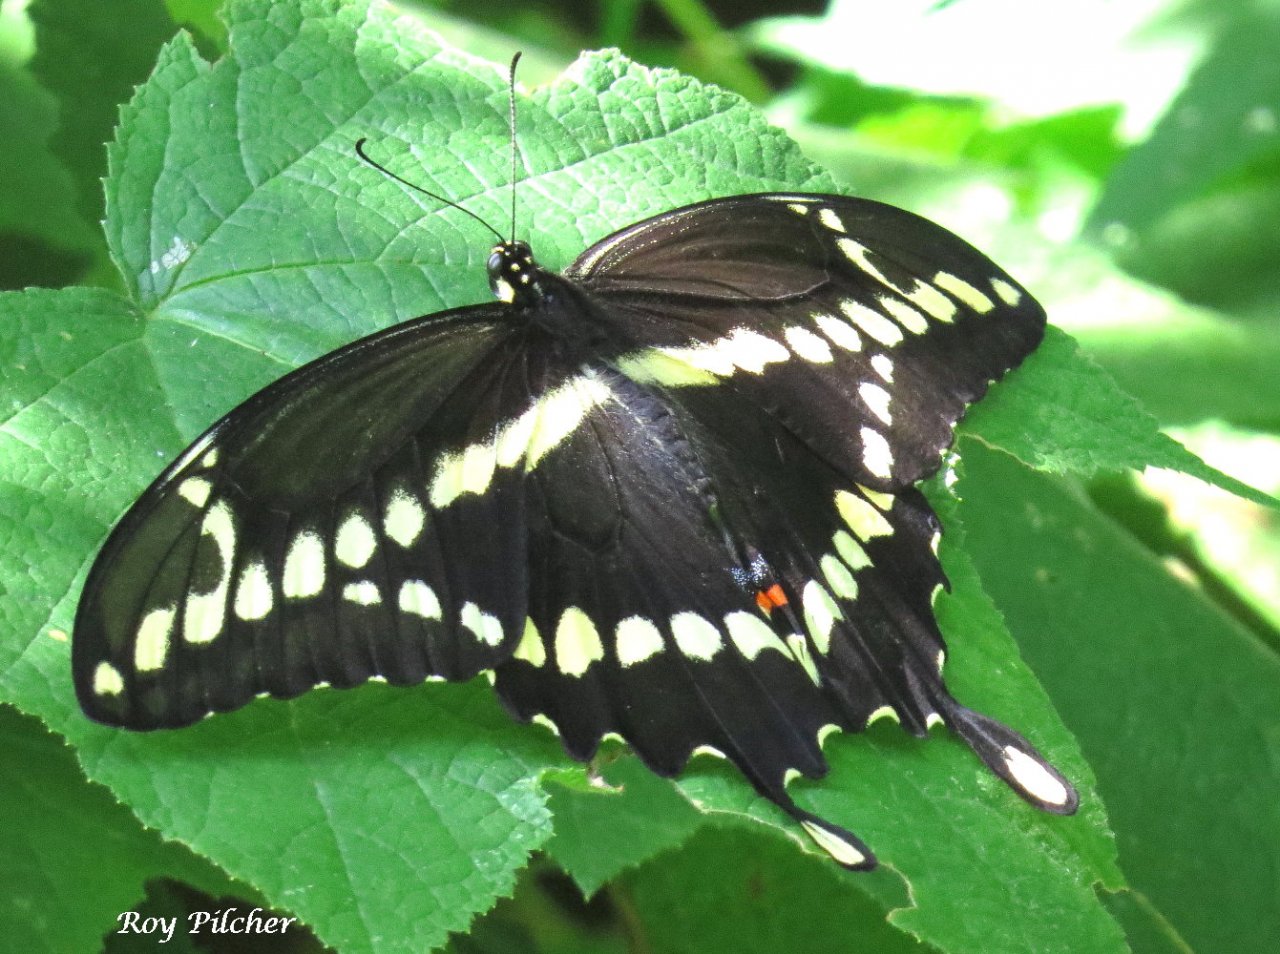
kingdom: Animalia
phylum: Arthropoda
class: Insecta
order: Lepidoptera
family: Papilionidae
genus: Papilio
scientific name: Papilio cresphontes
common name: Eastern Giant Swallowtail
